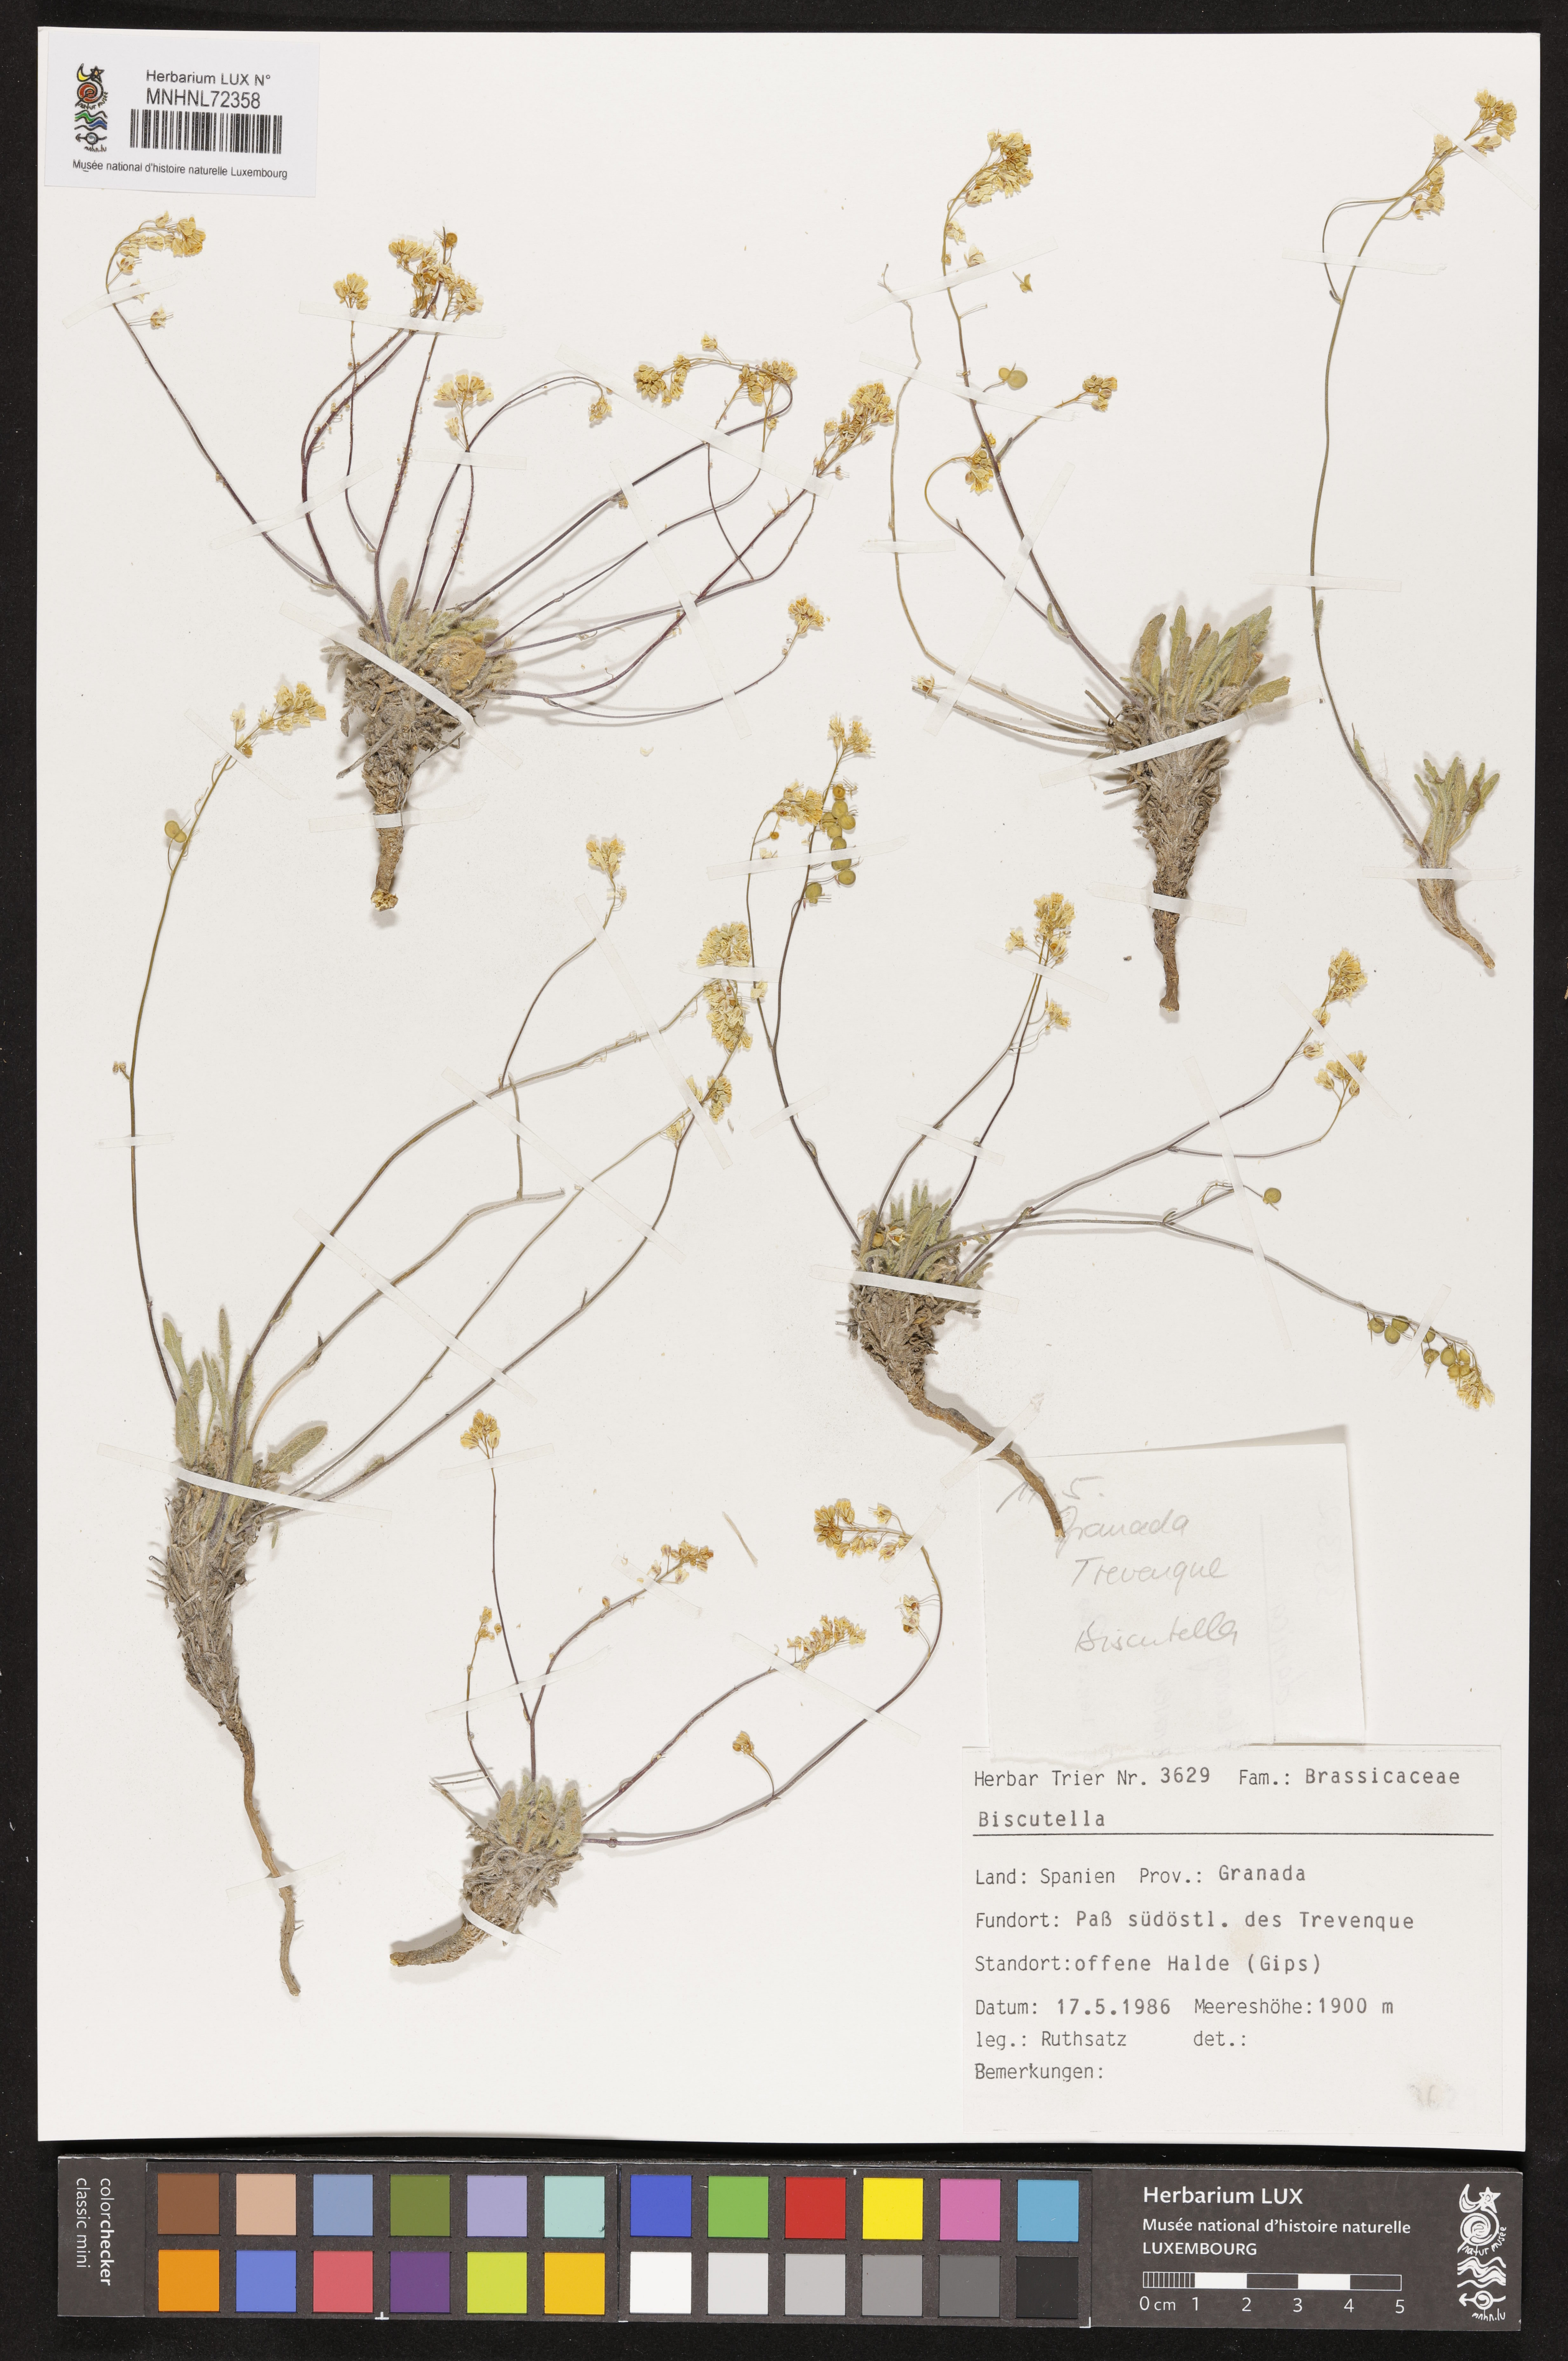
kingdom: Plantae
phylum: Tracheophyta
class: Magnoliopsida
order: Brassicales
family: Brassicaceae
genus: Biscutella
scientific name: Biscutella
